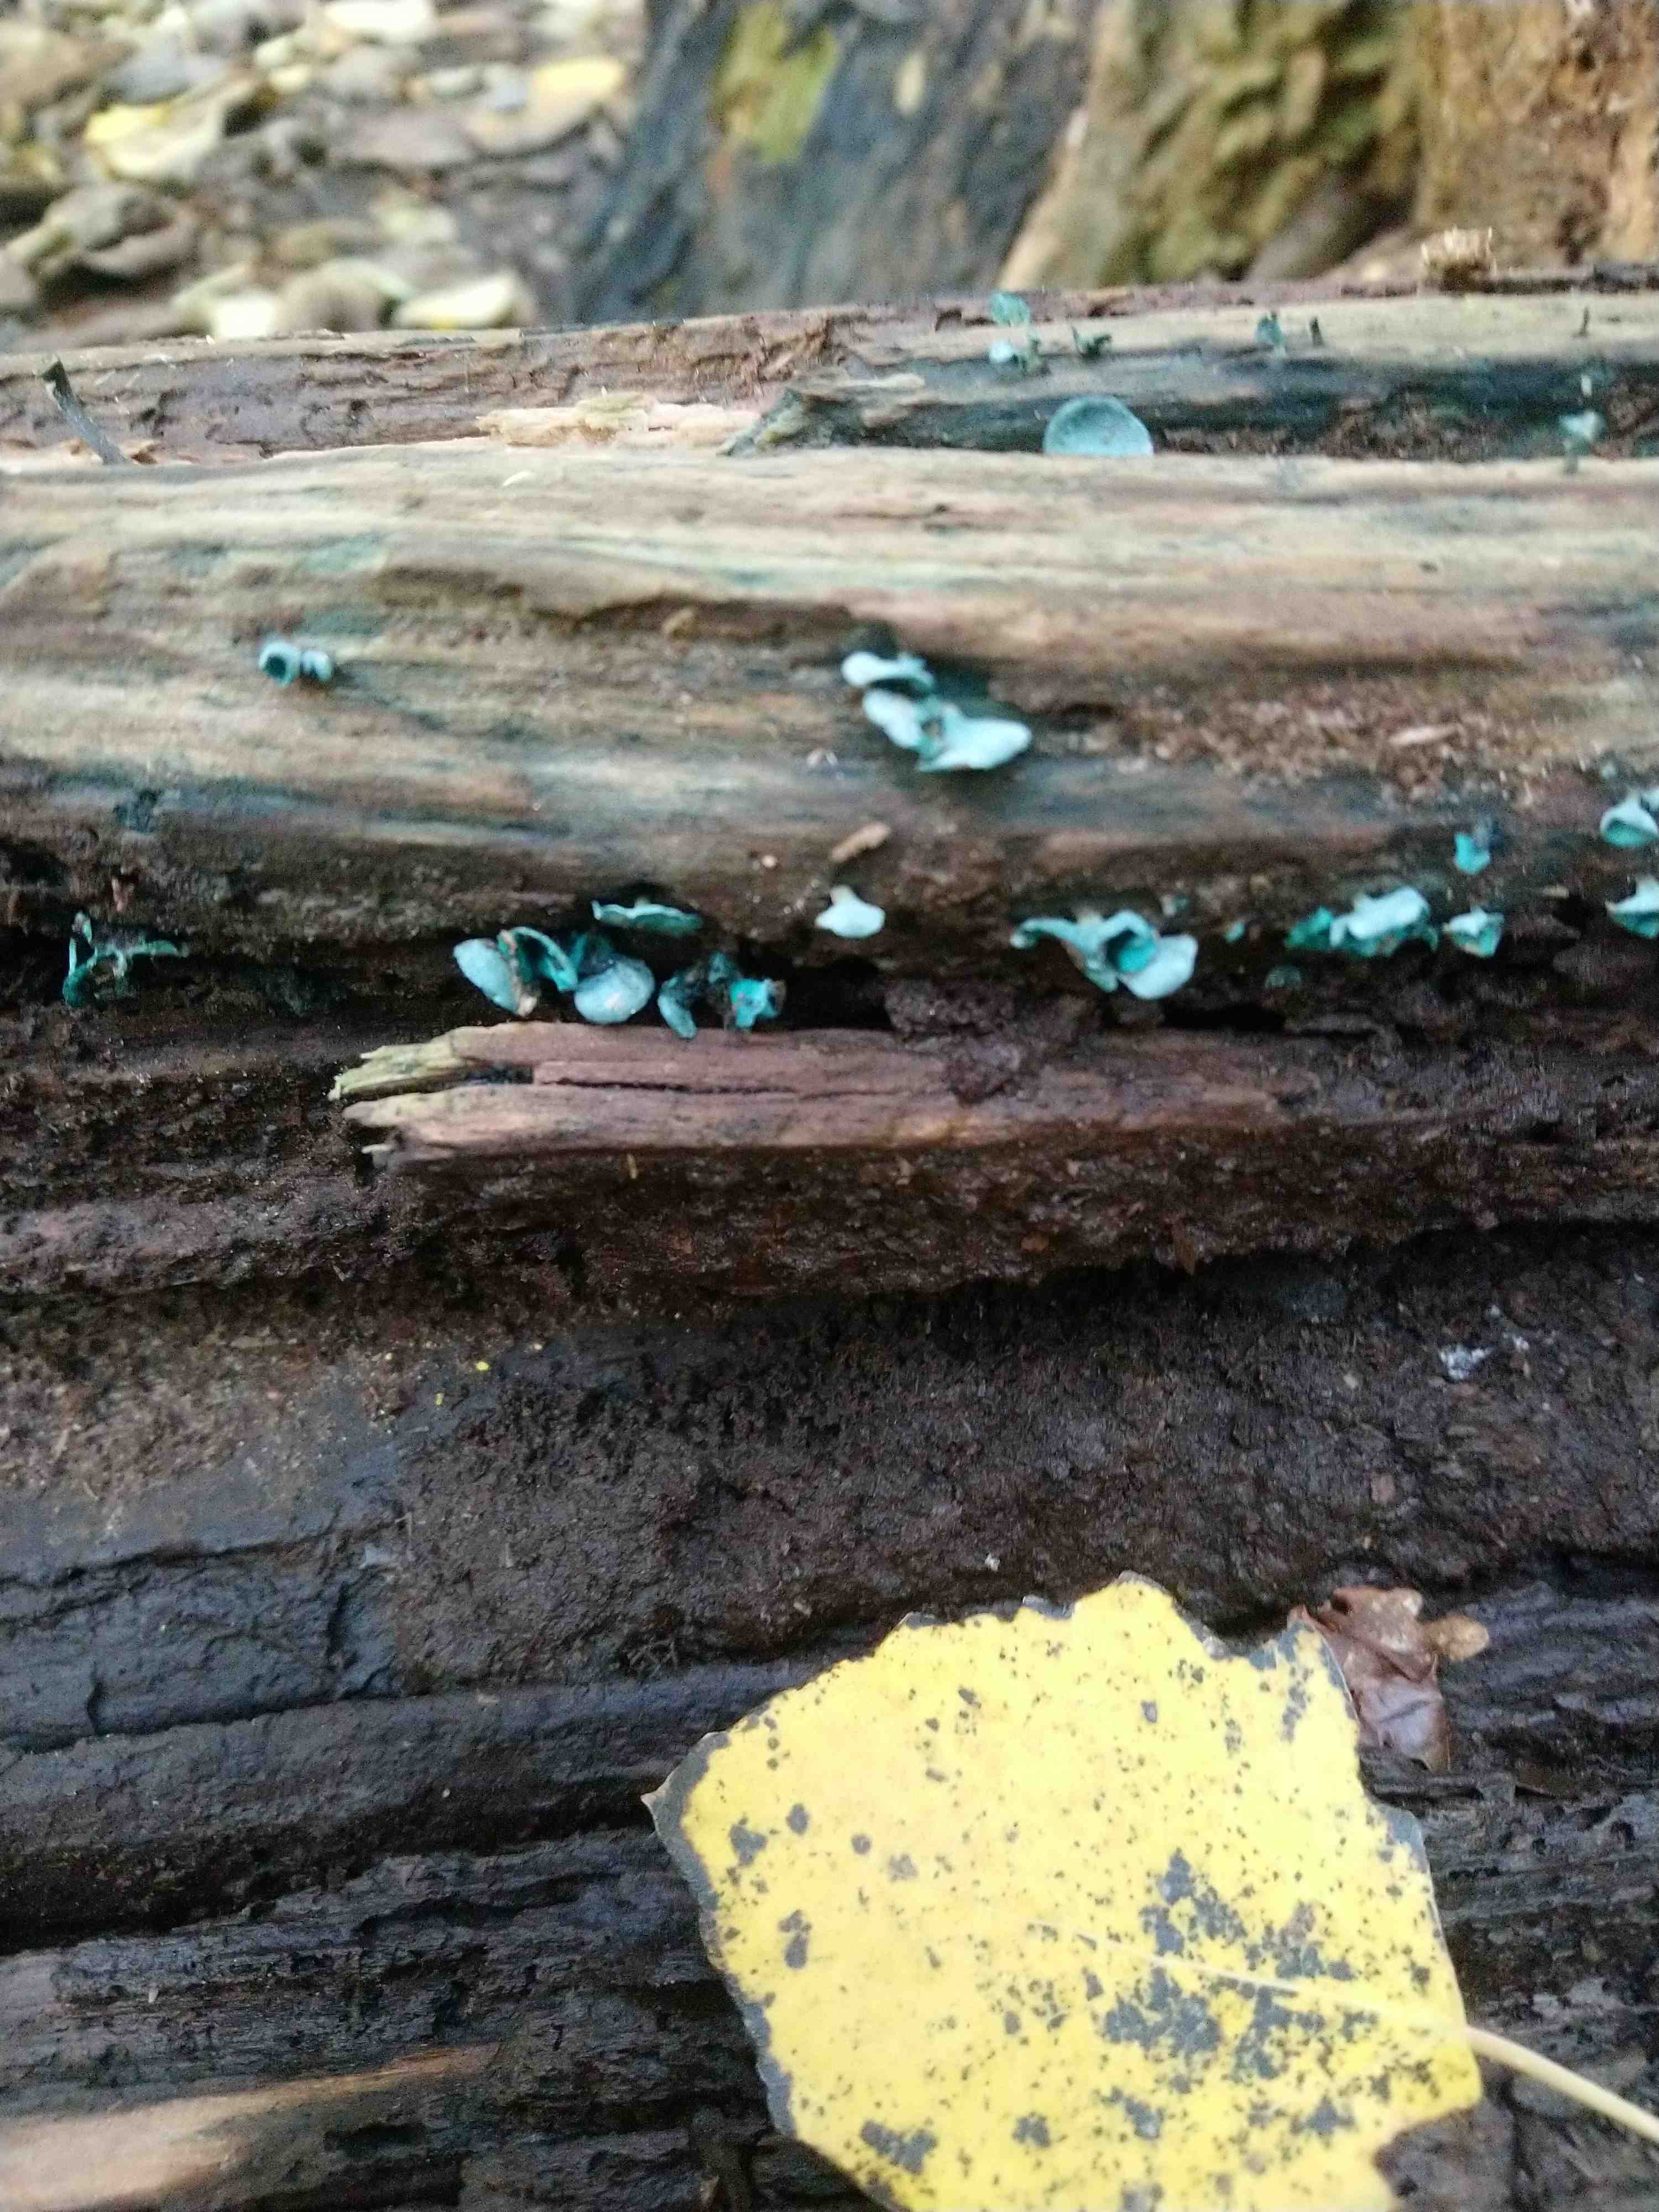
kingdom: Fungi
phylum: Ascomycota
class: Leotiomycetes
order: Helotiales
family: Chlorociboriaceae
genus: Chlorociboria
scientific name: Chlorociboria aeruginascens
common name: almindelig grønskive
